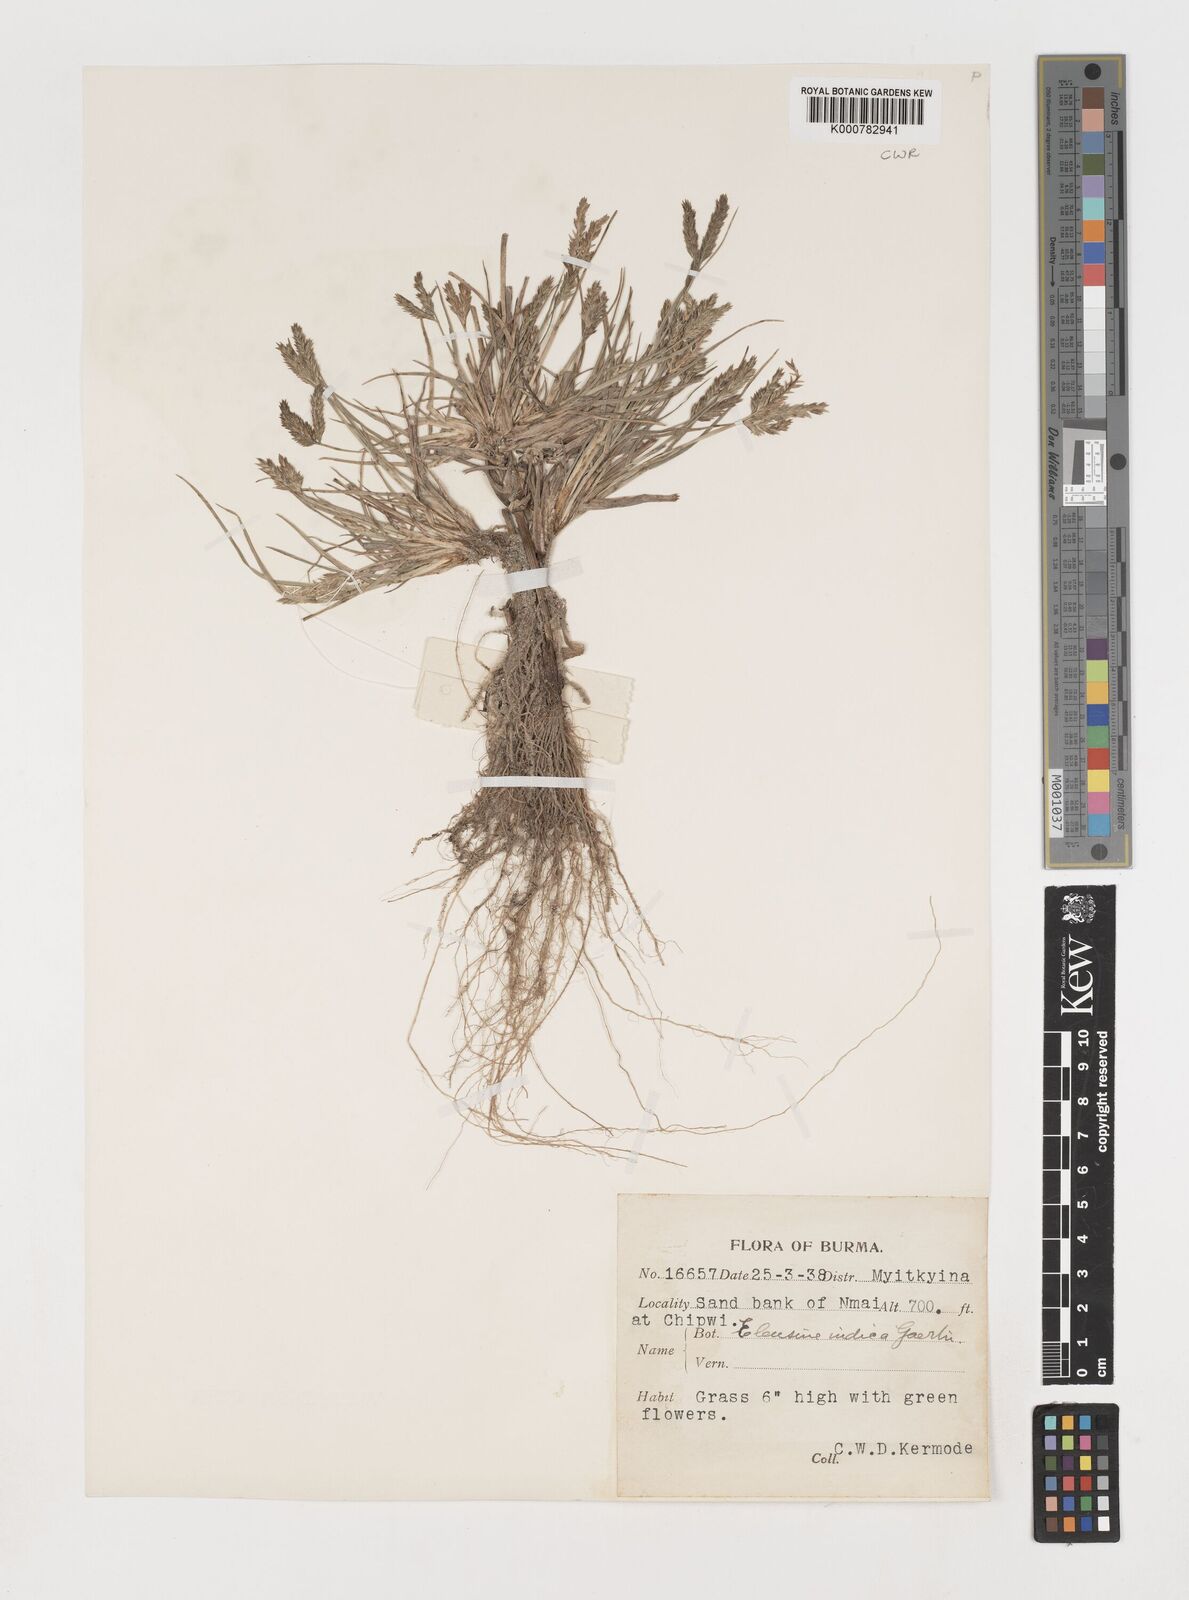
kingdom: Plantae
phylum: Tracheophyta
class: Liliopsida
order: Poales
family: Poaceae
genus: Eleusine
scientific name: Eleusine indica
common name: Yard-grass
